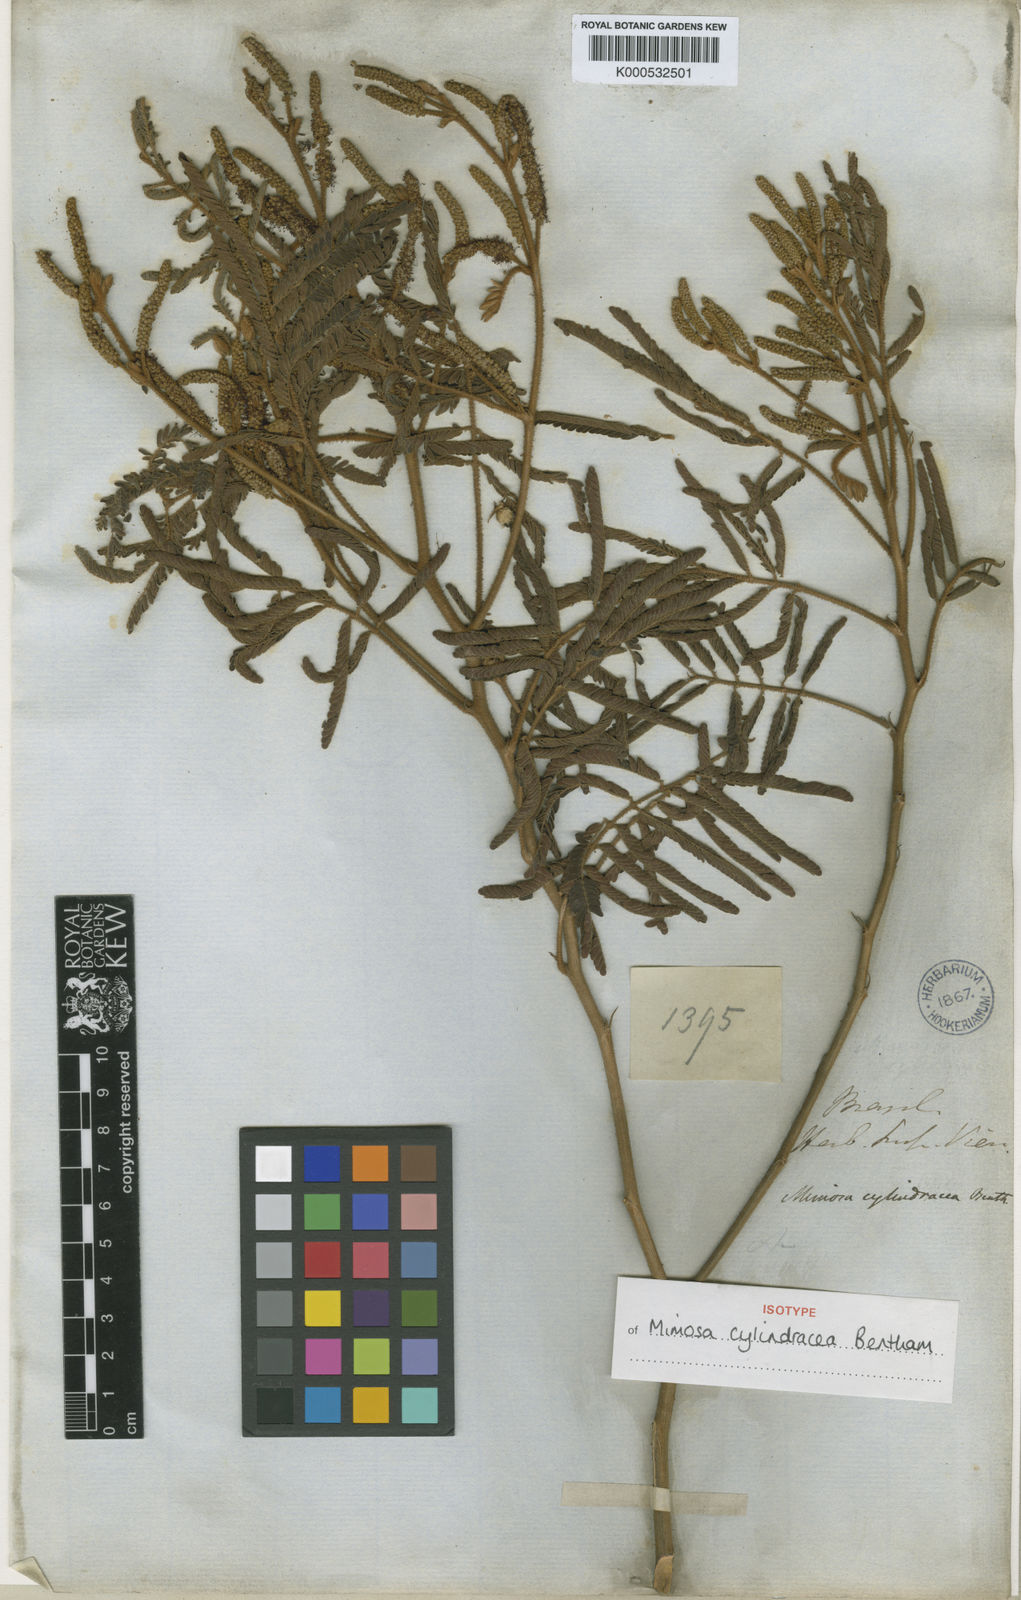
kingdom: Plantae
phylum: Tracheophyta
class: Magnoliopsida
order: Fabales
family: Fabaceae
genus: Mimosa
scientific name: Mimosa cylindracea
